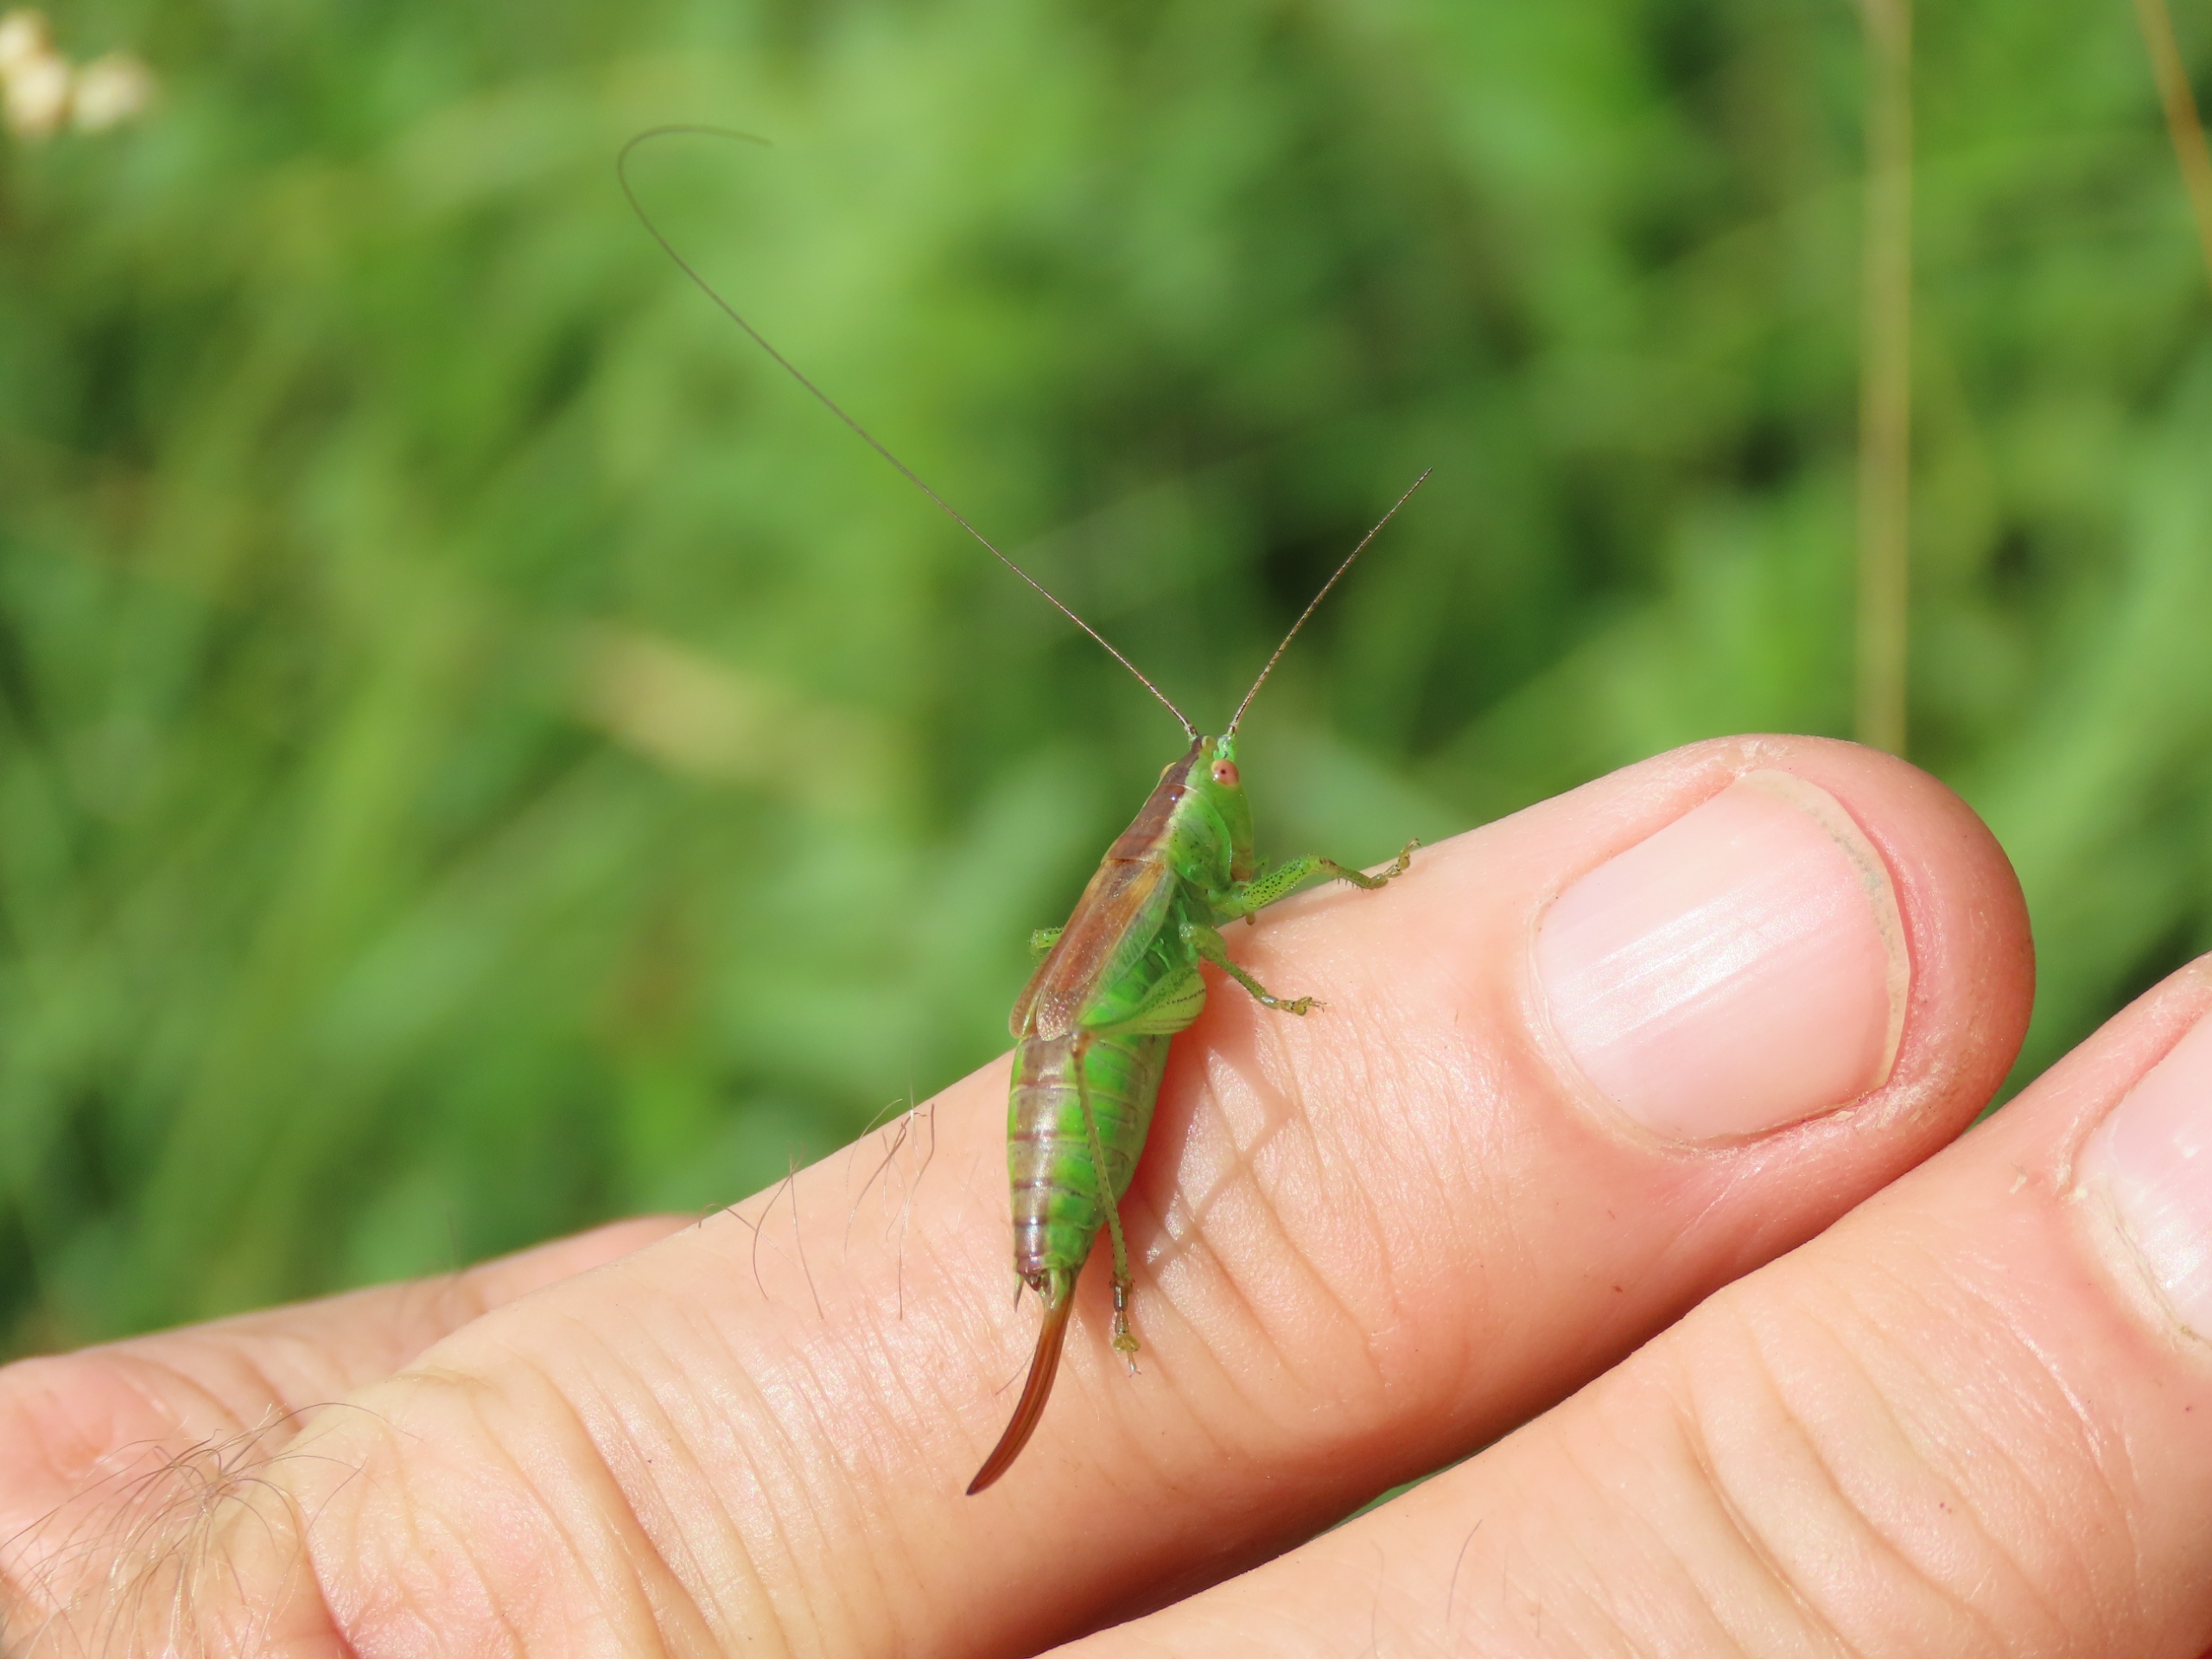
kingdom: Animalia
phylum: Arthropoda
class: Insecta
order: Orthoptera
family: Tettigoniidae
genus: Conocephalus
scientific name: Conocephalus dorsalis
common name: Sivgræshoppe
